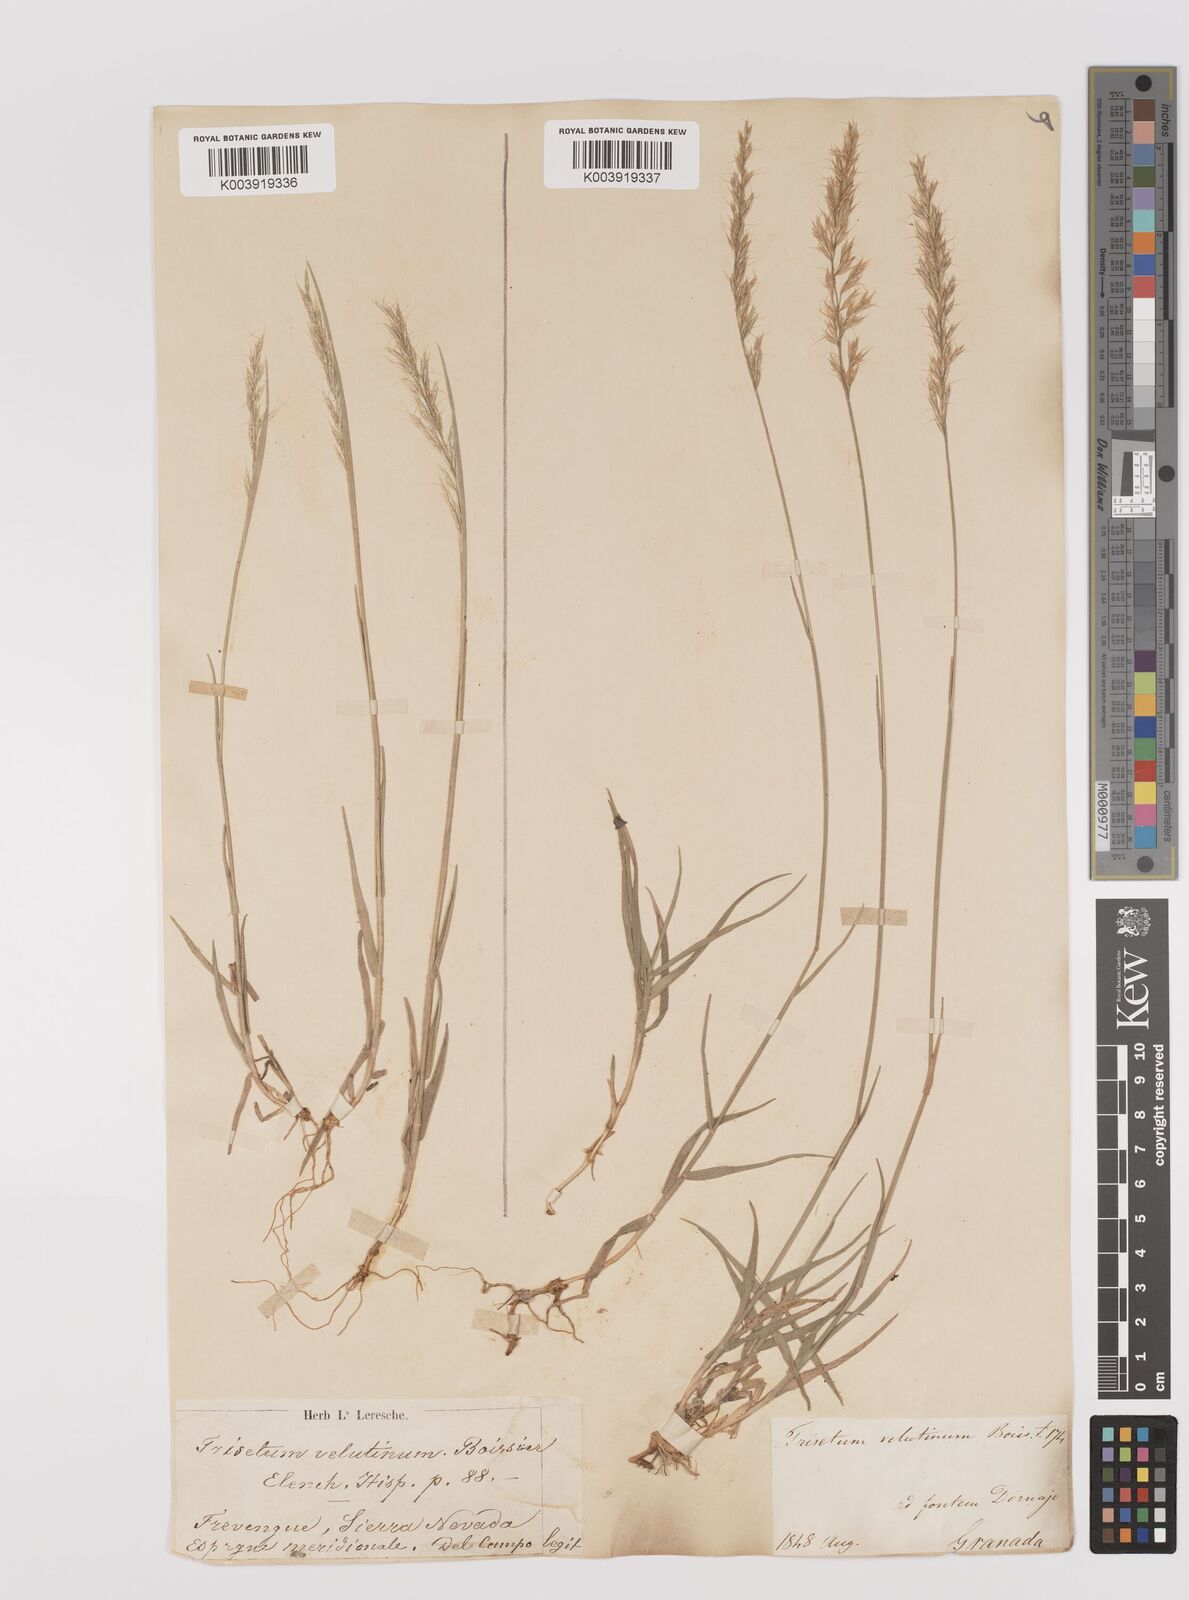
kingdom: Plantae
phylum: Tracheophyta
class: Liliopsida
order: Poales
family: Poaceae
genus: Trisetum
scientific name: Trisetum velutinum
